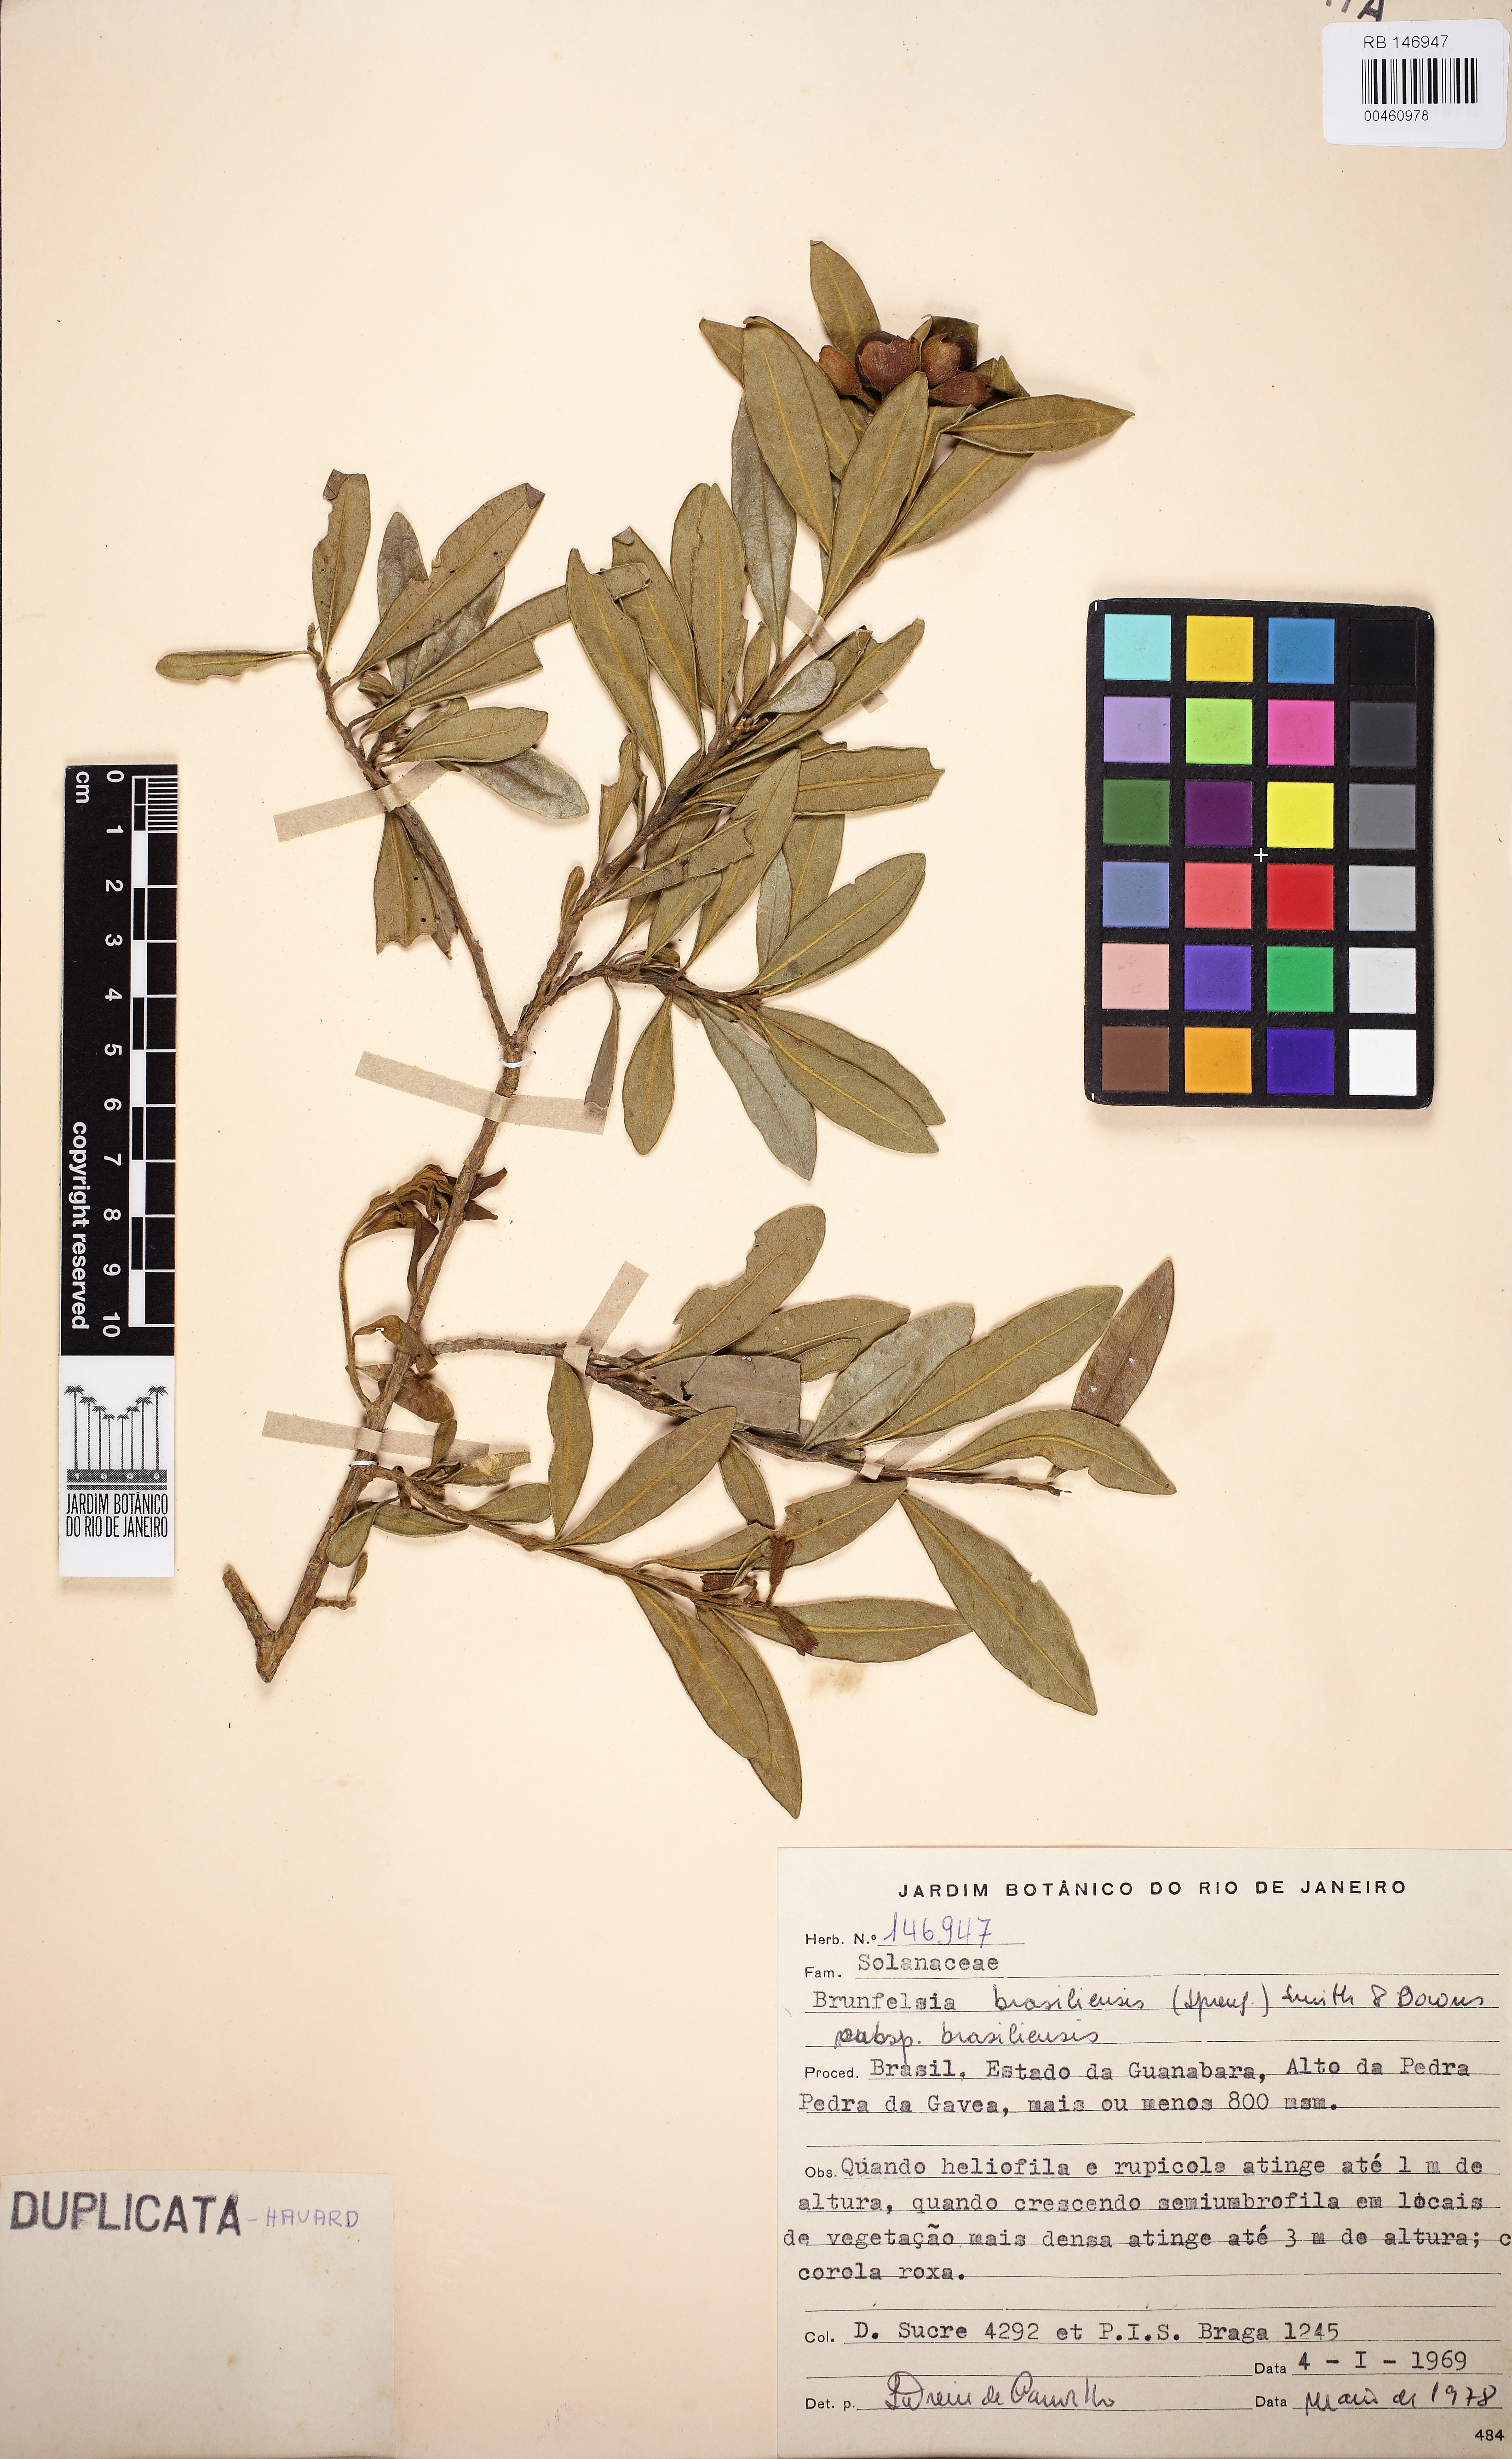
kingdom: Plantae
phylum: Tracheophyta
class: Magnoliopsida
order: Solanales
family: Solanaceae
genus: Brunfelsia
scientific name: Brunfelsia brasiliensis
